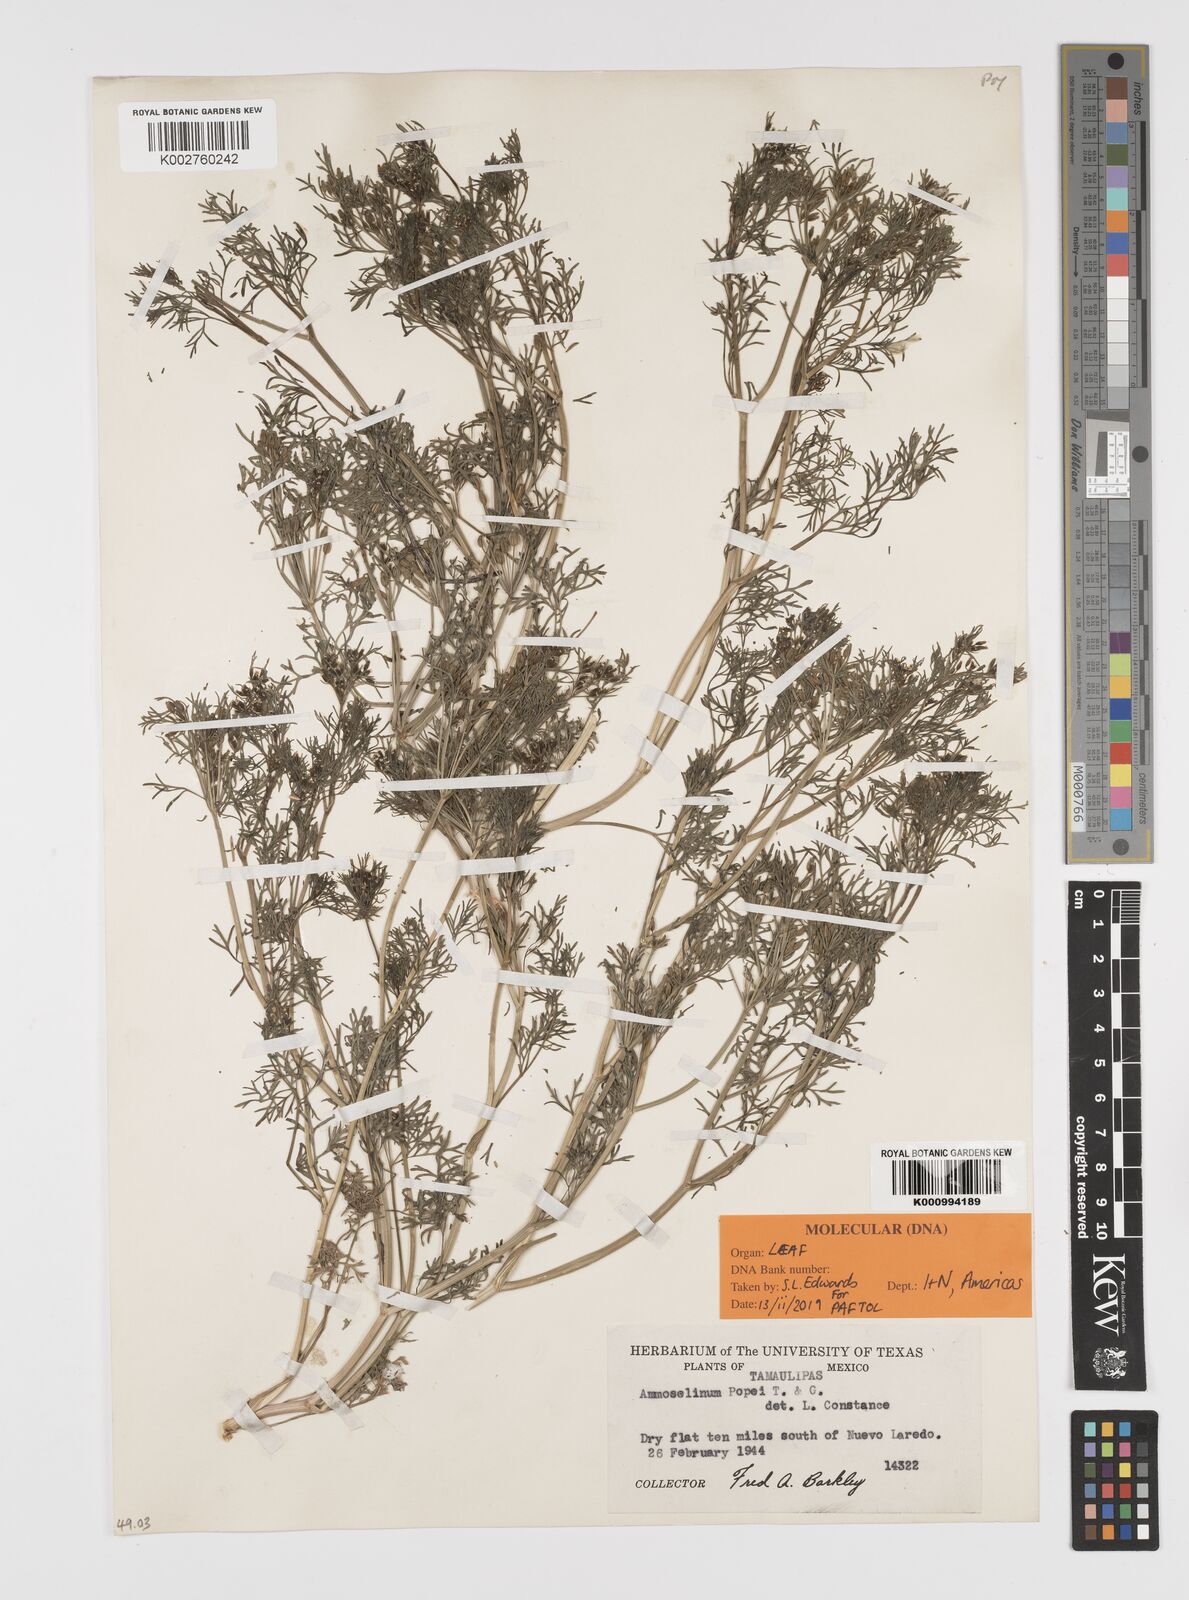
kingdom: Plantae
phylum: Tracheophyta
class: Magnoliopsida
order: Apiales
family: Apiaceae
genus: Ammoselinum
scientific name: Ammoselinum popei
